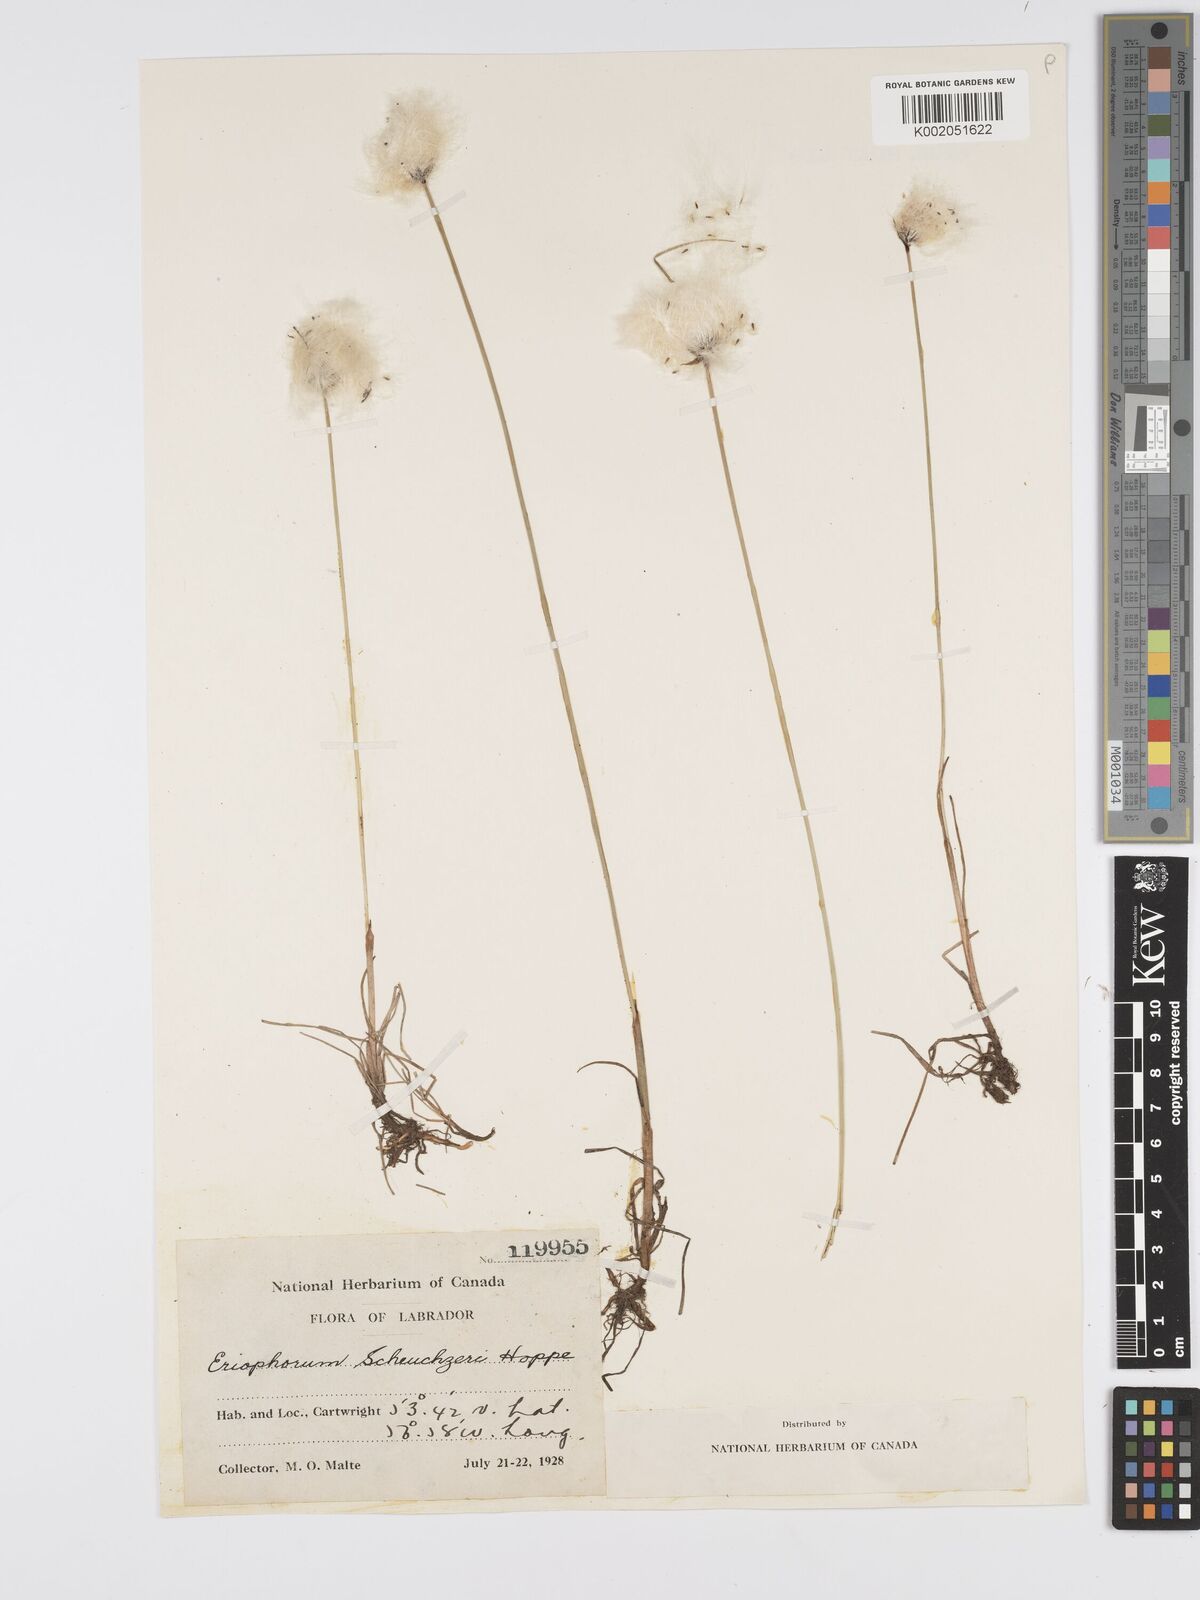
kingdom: Plantae
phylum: Tracheophyta
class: Liliopsida
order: Poales
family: Cyperaceae
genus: Eriophorum
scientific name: Eriophorum scheuchzeri
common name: Scheuchzer's cottongrass
